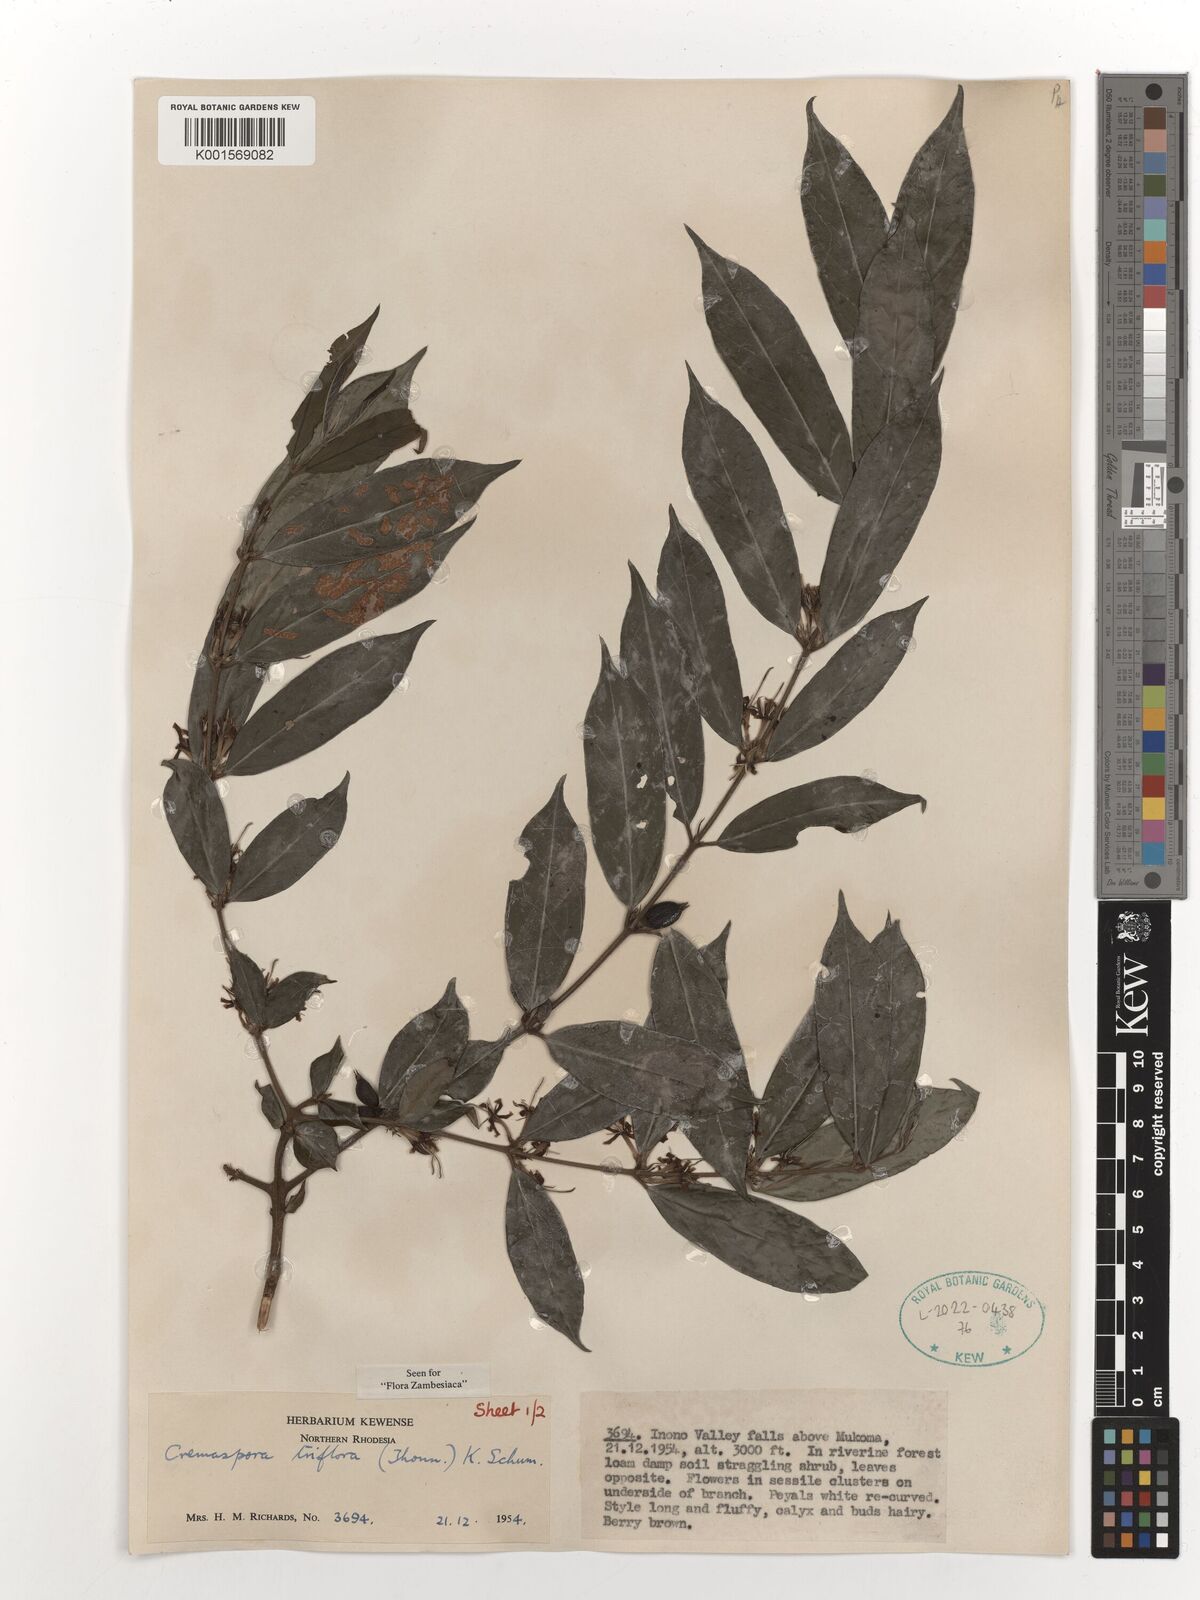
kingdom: Plantae
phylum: Tracheophyta
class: Magnoliopsida
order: Gentianales
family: Rubiaceae
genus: Cremaspora
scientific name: Cremaspora triflora
